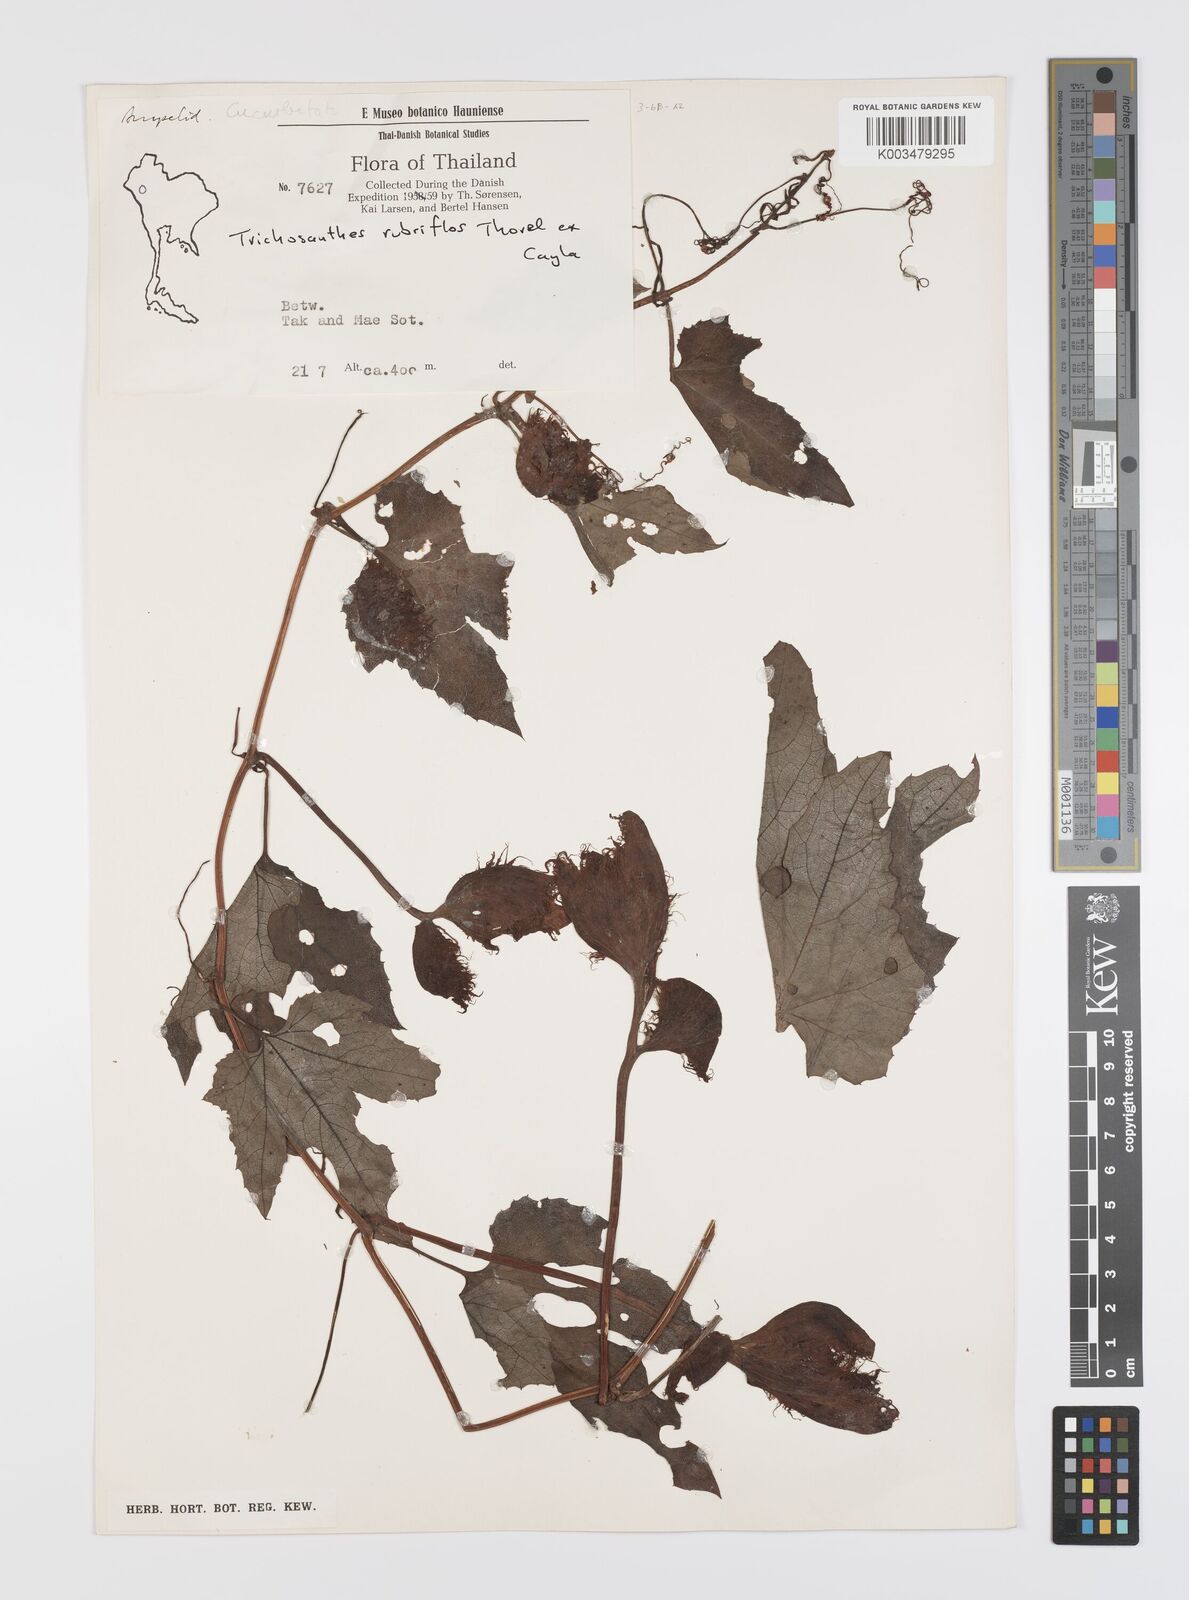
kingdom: Plantae
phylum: Tracheophyta
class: Magnoliopsida
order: Cucurbitales
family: Cucurbitaceae
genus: Trichosanthes
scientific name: Trichosanthes rubriflos
